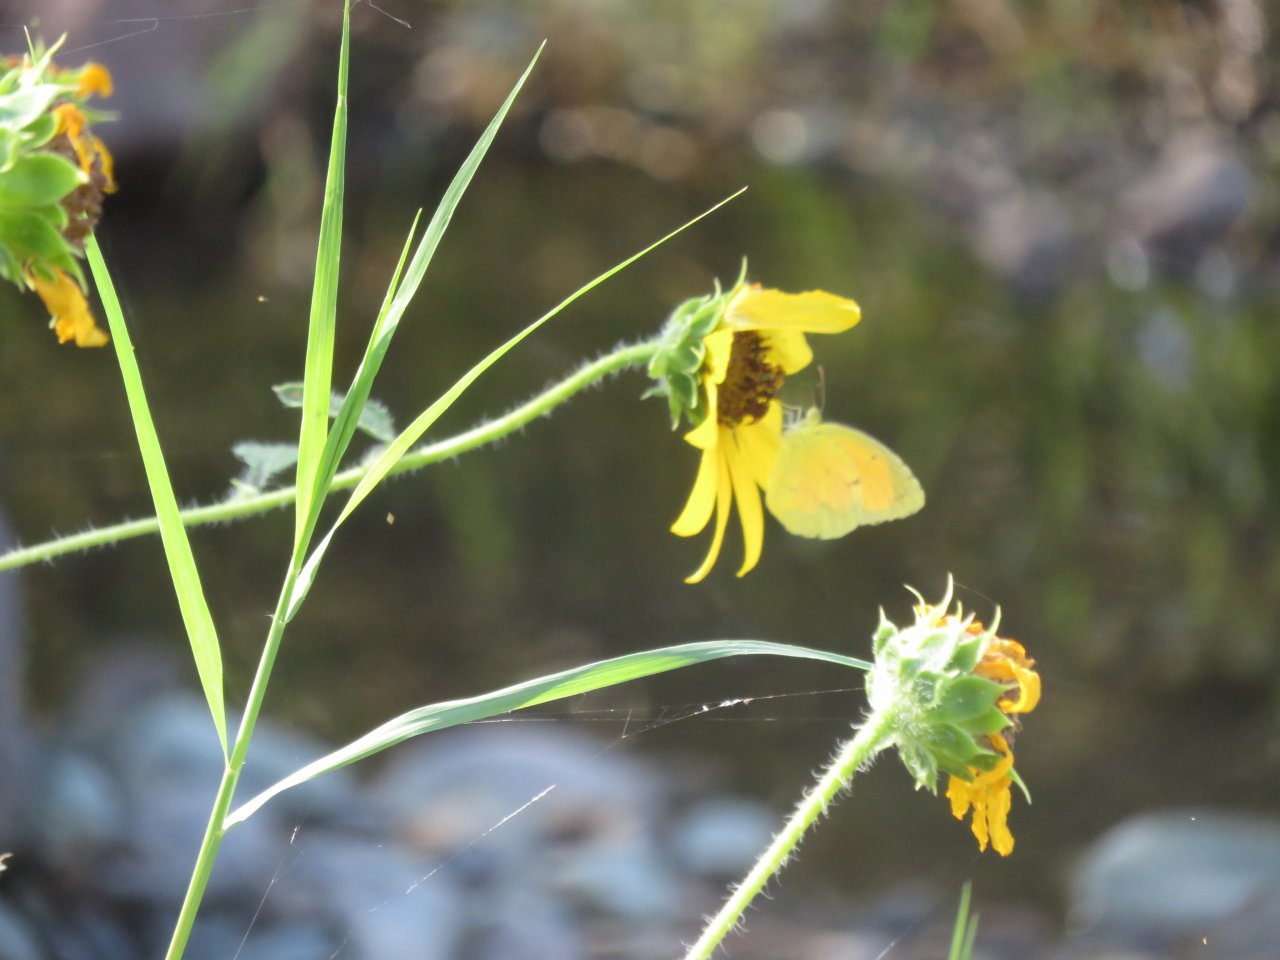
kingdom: Animalia
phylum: Arthropoda
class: Insecta
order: Lepidoptera
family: Pieridae
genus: Abaeis
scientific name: Abaeis nicippe
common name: Sleepy Orange
